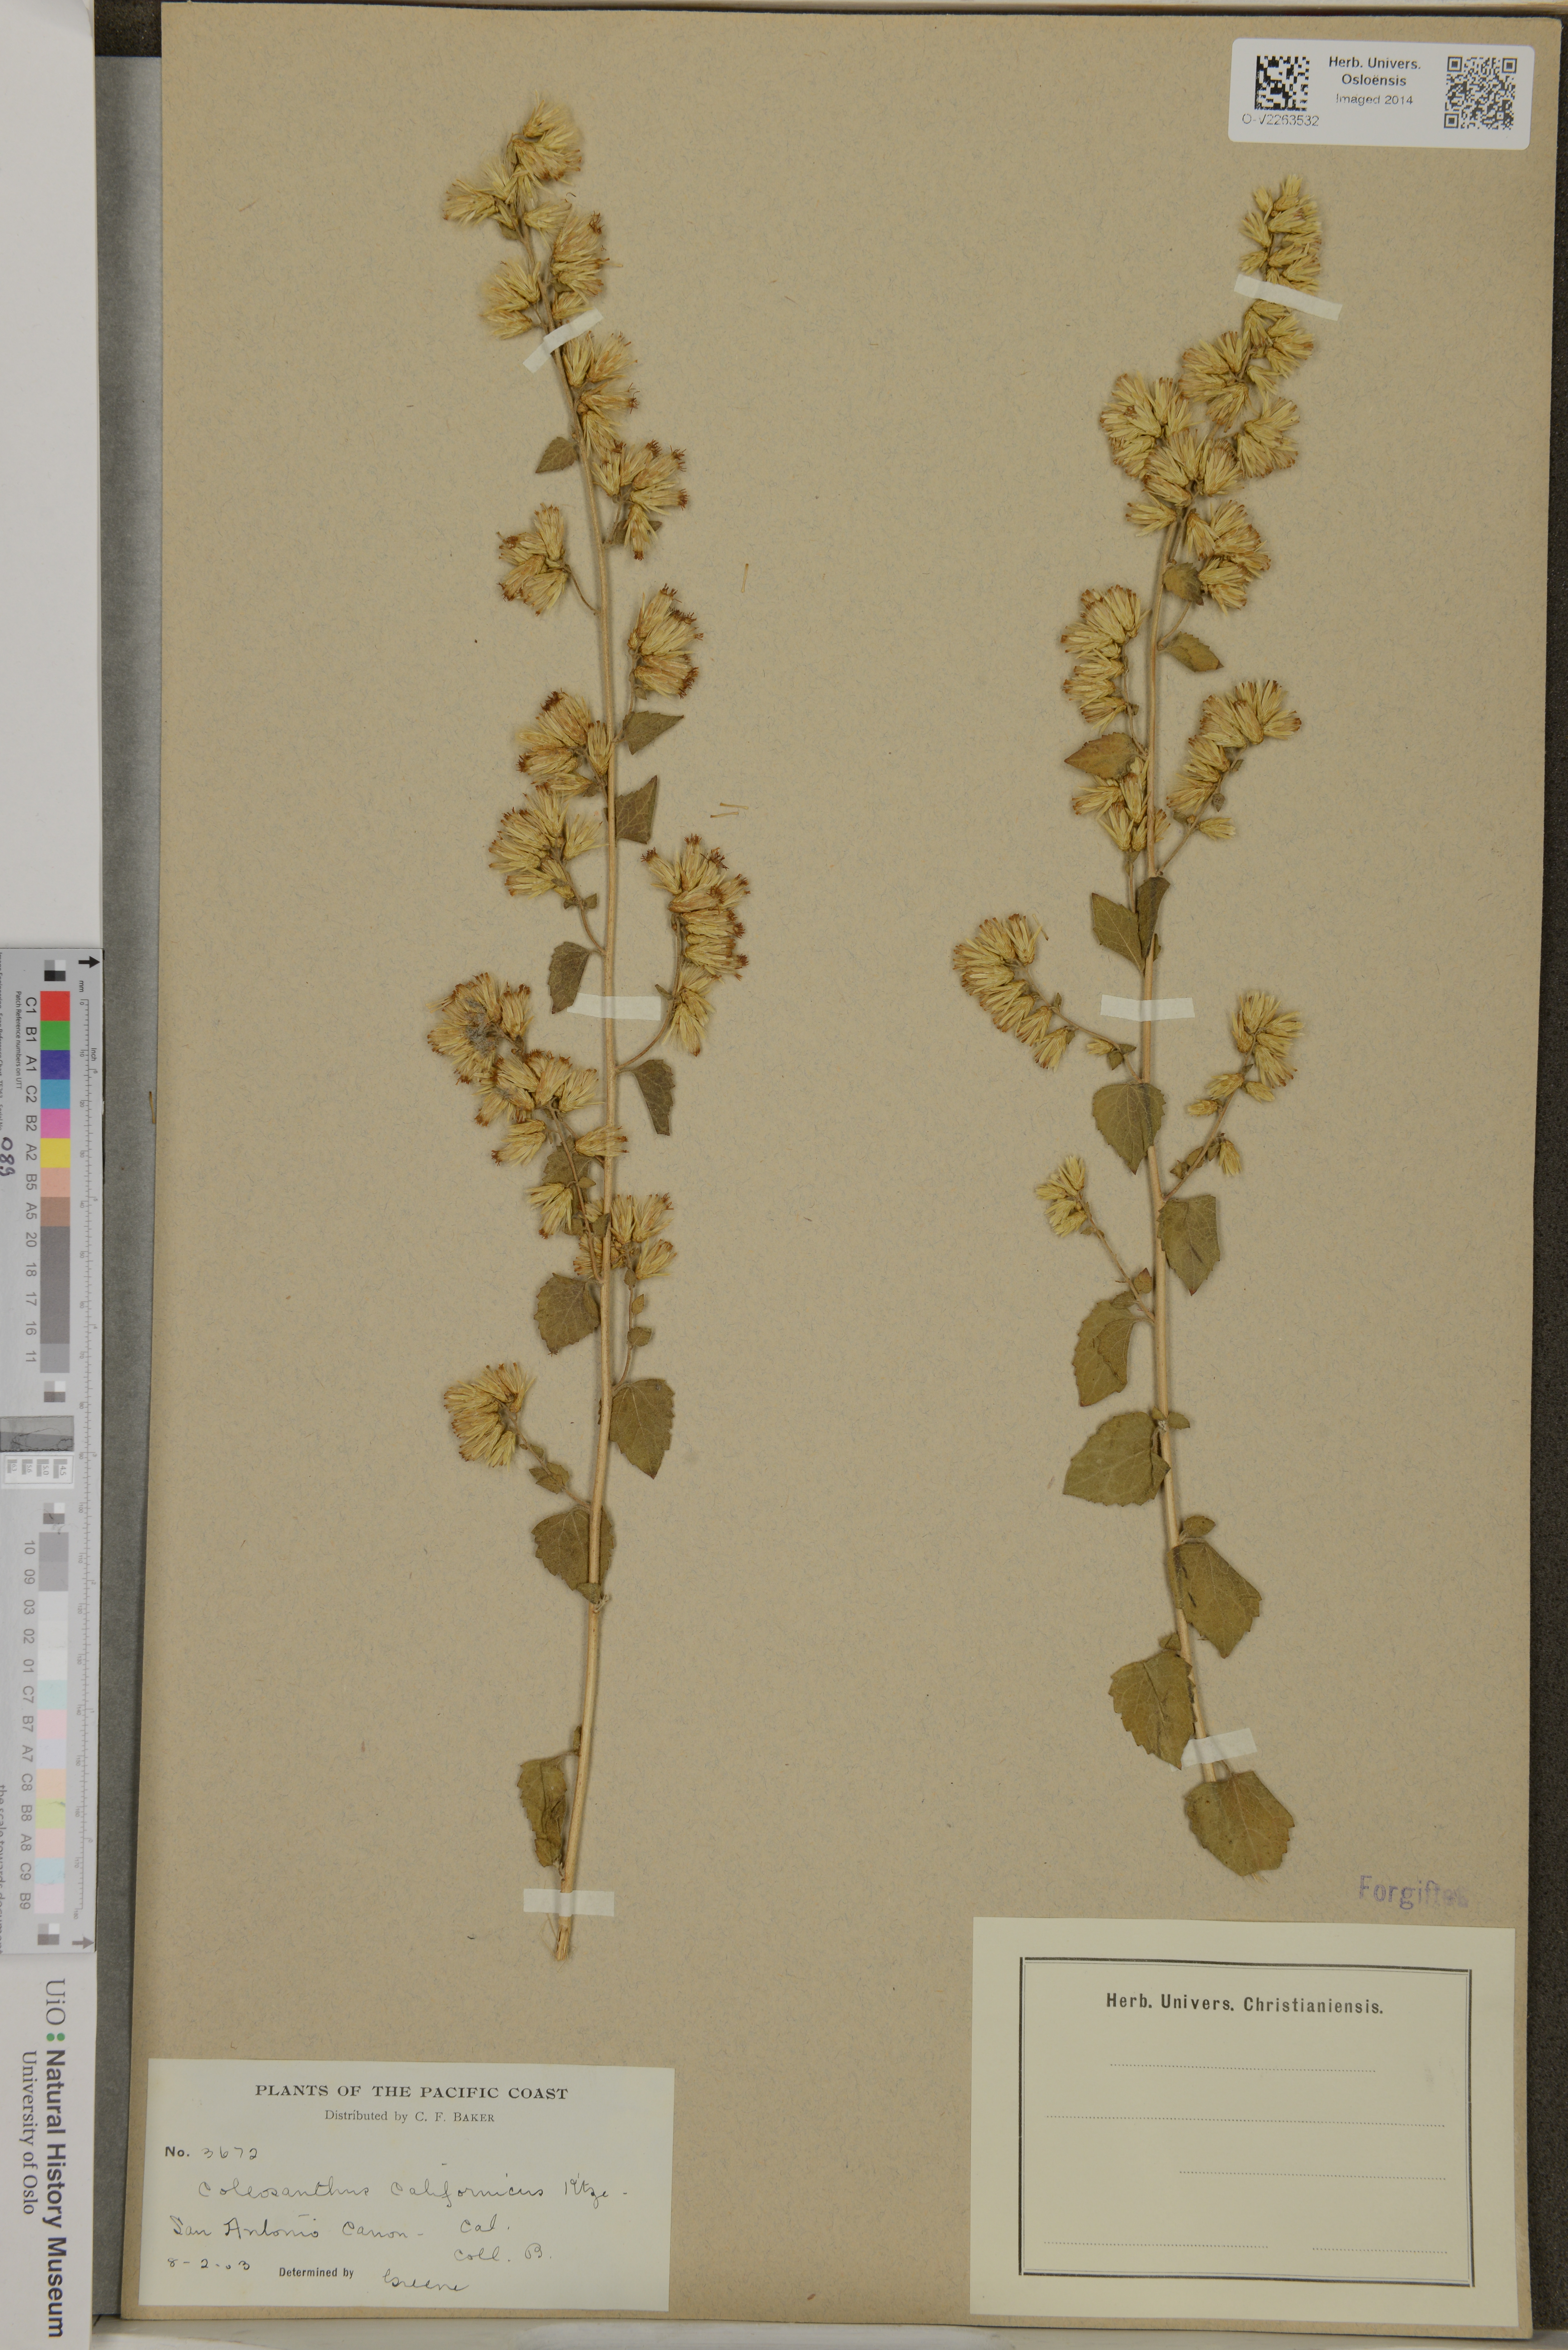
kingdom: Plantae
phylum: Tracheophyta
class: Magnoliopsida
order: Asterales
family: Asteraceae
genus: Brickellia
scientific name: Brickellia californica
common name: California brickellbush
